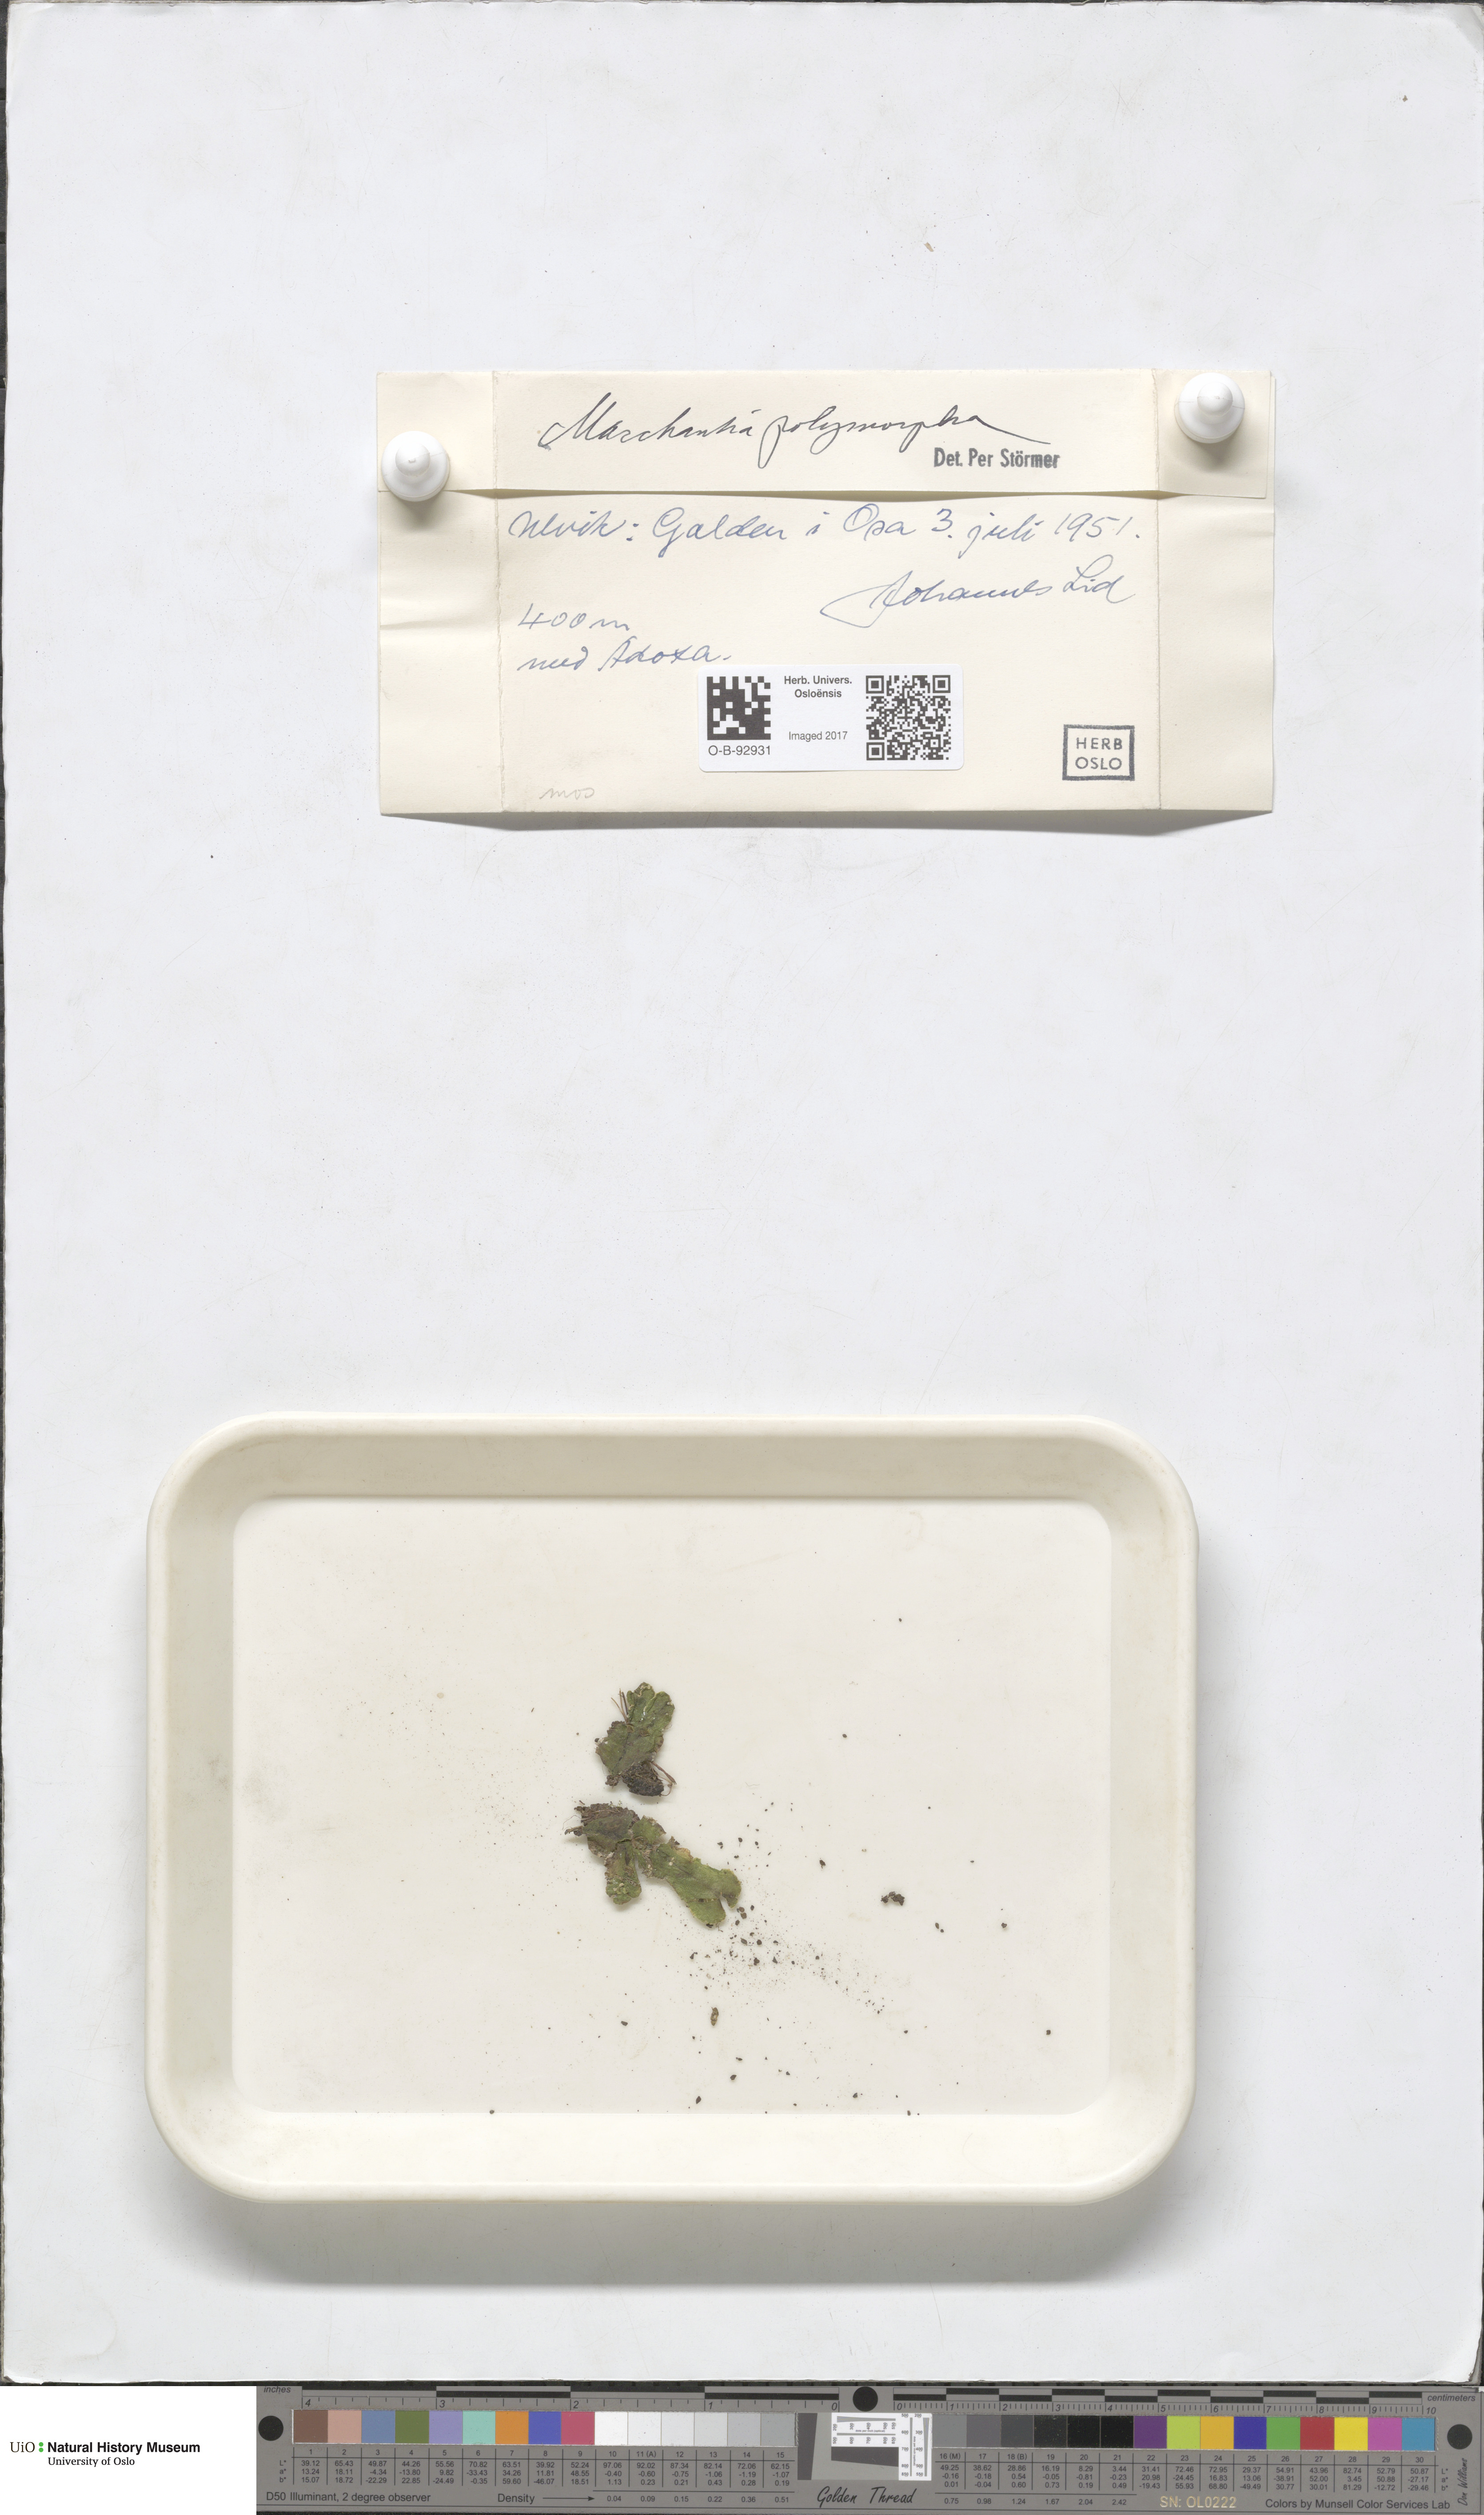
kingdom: Plantae
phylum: Marchantiophyta
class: Marchantiopsida
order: Marchantiales
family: Marchantiaceae
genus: Marchantia
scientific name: Marchantia polymorpha
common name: Common liverwort
